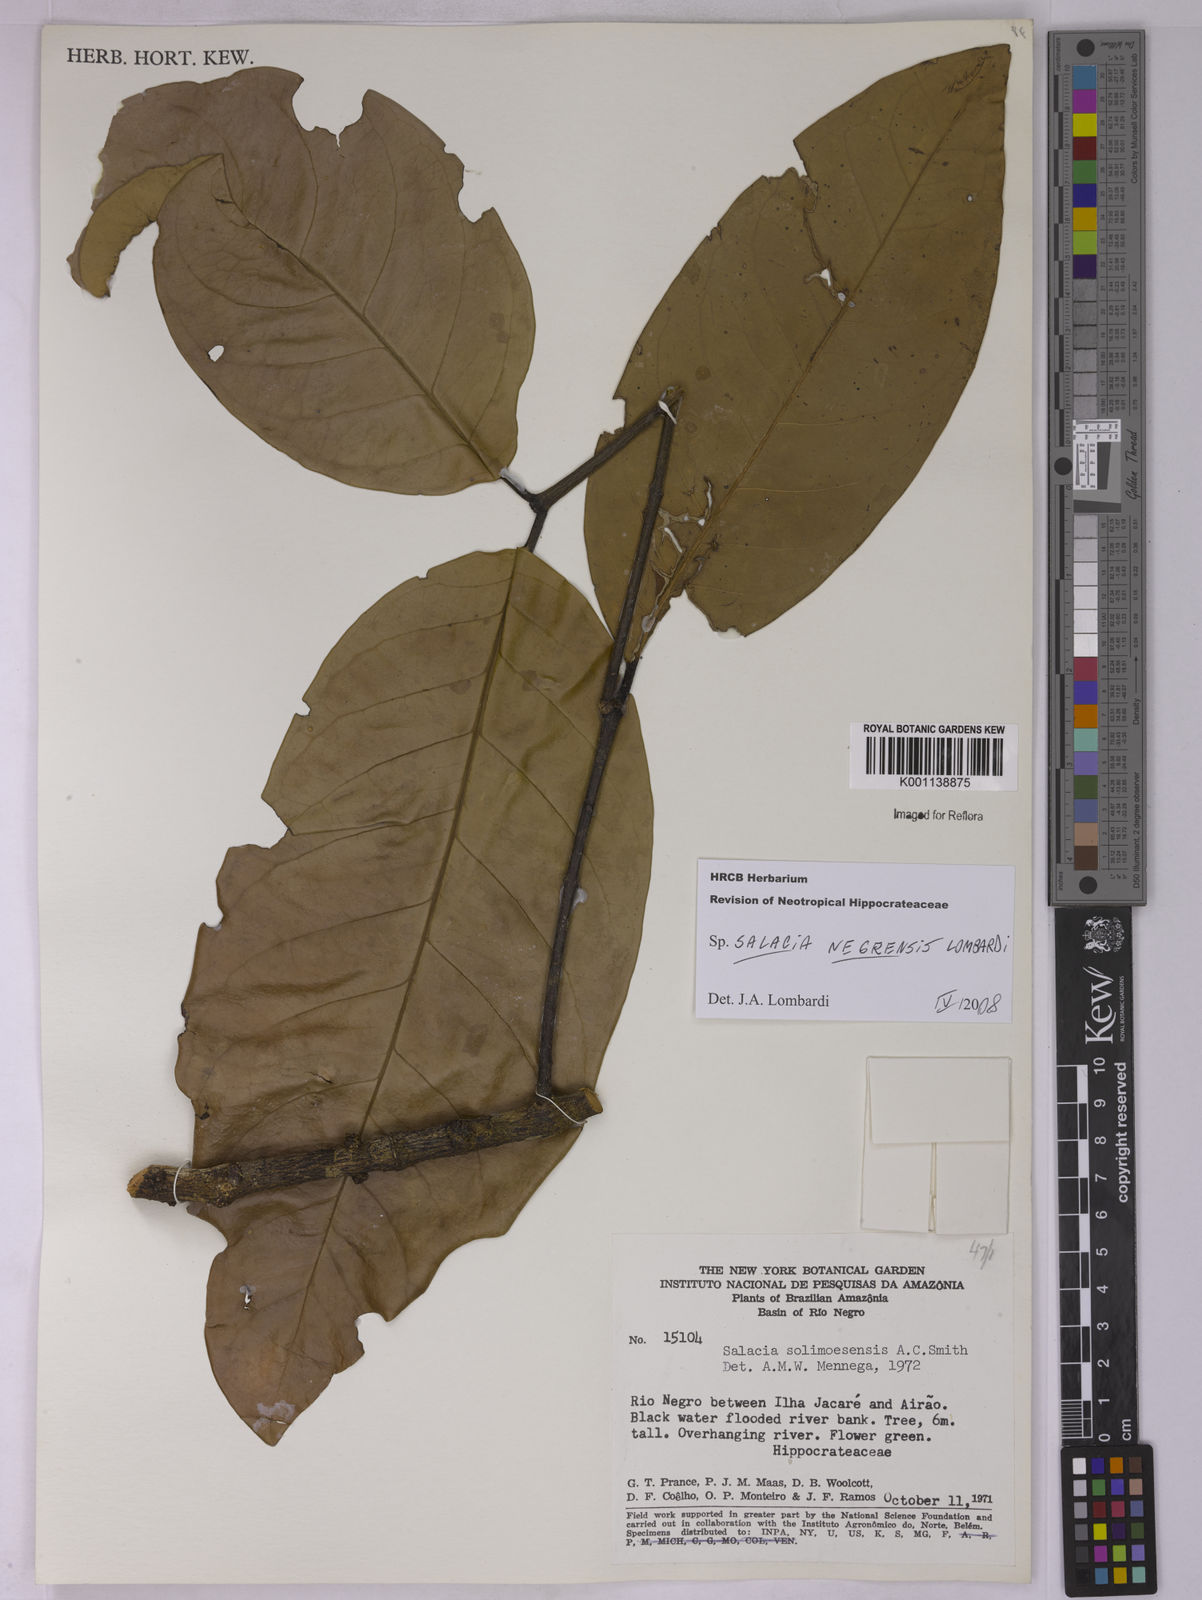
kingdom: Plantae
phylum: Tracheophyta
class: Magnoliopsida
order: Celastrales
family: Celastraceae
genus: Salacia
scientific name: Salacia negrensis
